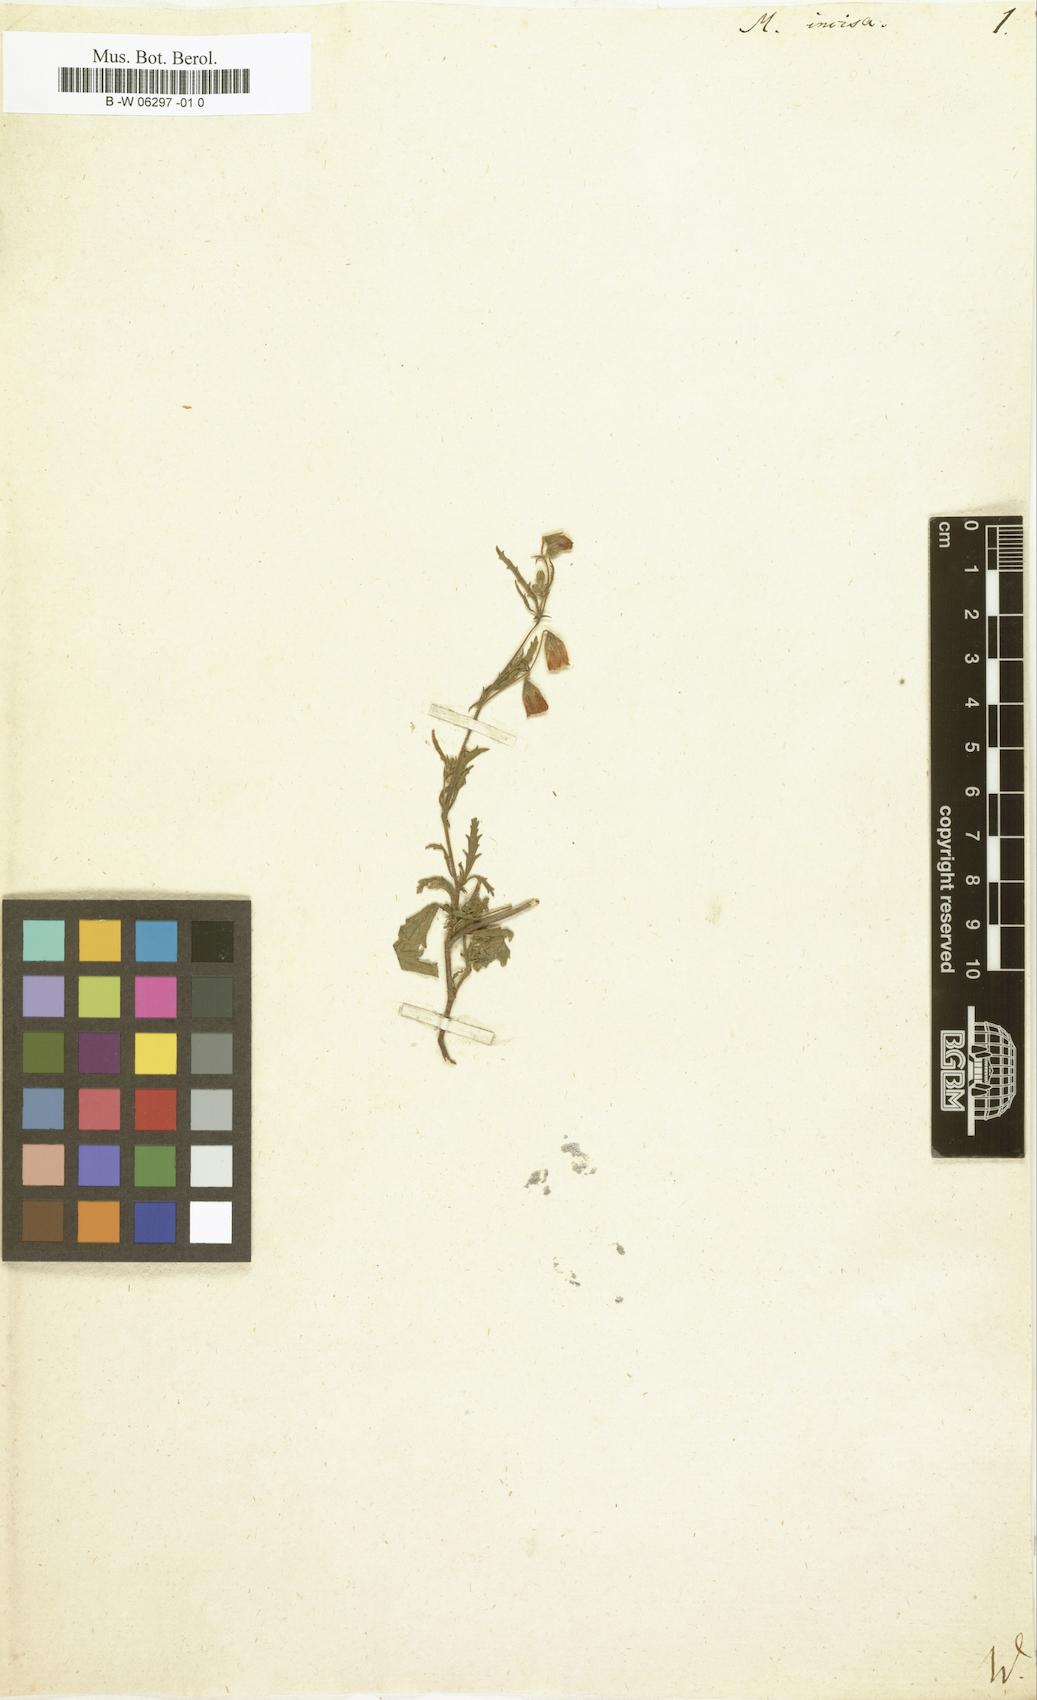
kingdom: Plantae
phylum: Tracheophyta
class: Magnoliopsida
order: Malvales
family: Malvaceae
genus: Hermannia
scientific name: Hermannia grossularifolia
